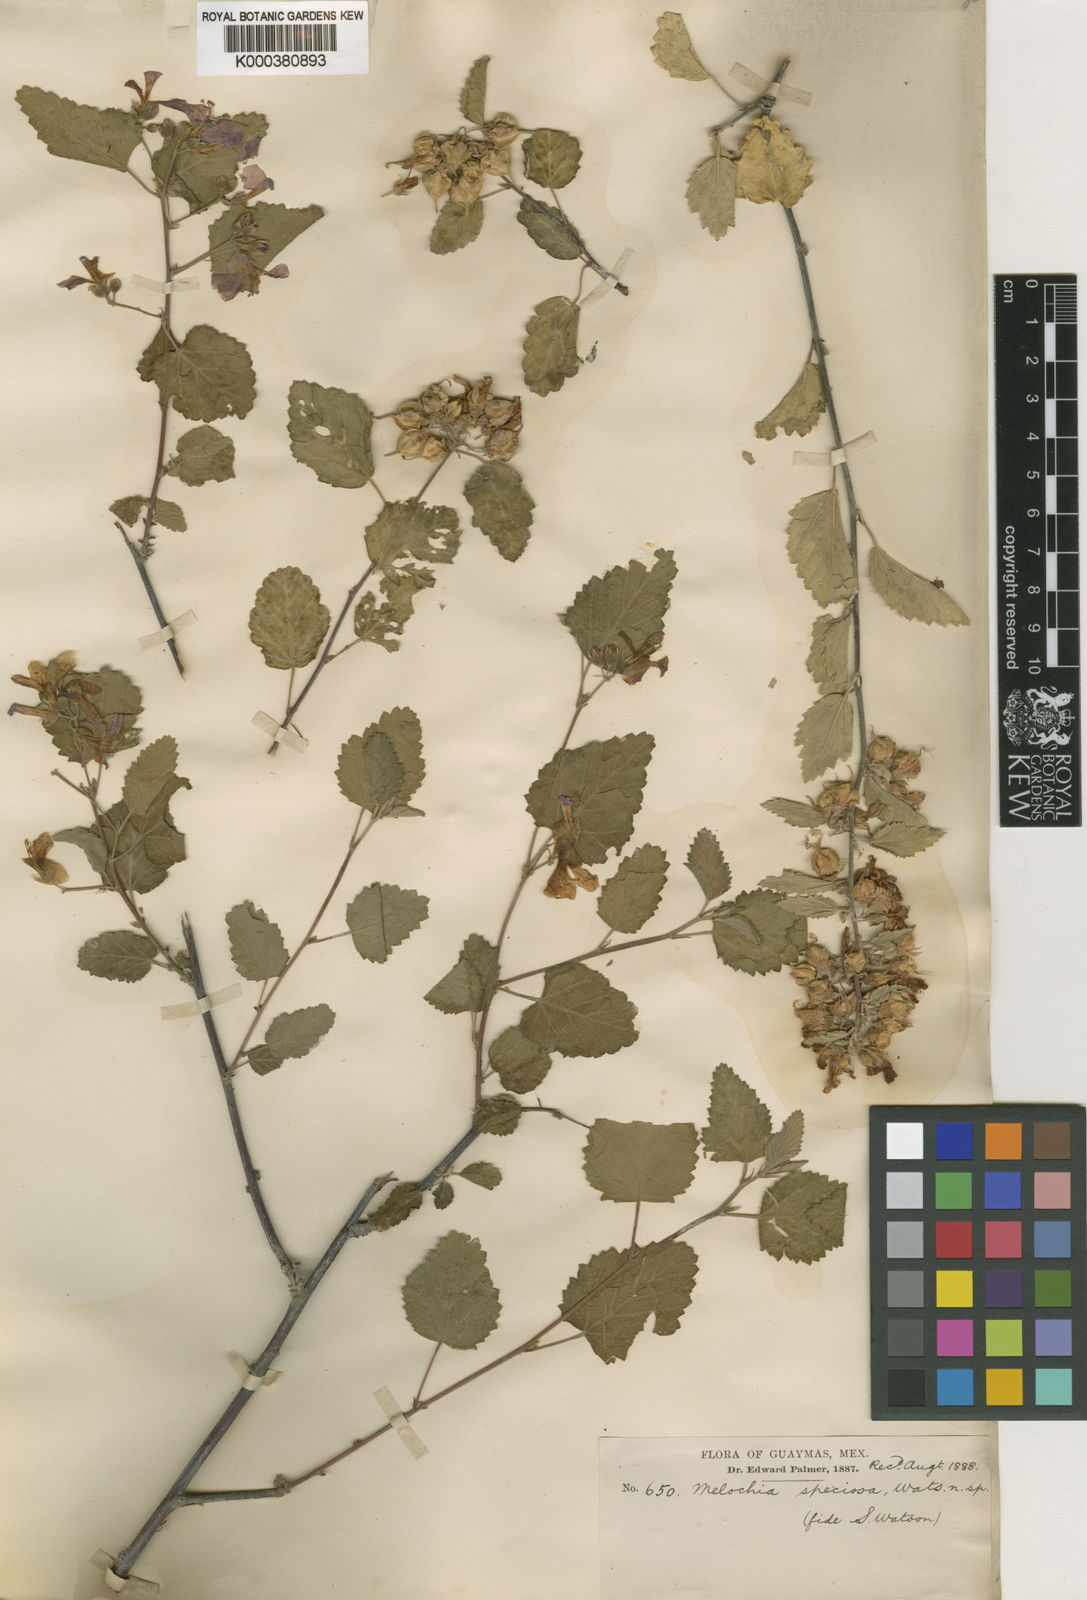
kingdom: Plantae
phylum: Tracheophyta
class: Magnoliopsida
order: Malvales
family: Malvaceae
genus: Melochia
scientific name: Melochia tomentosa
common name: Black torch
